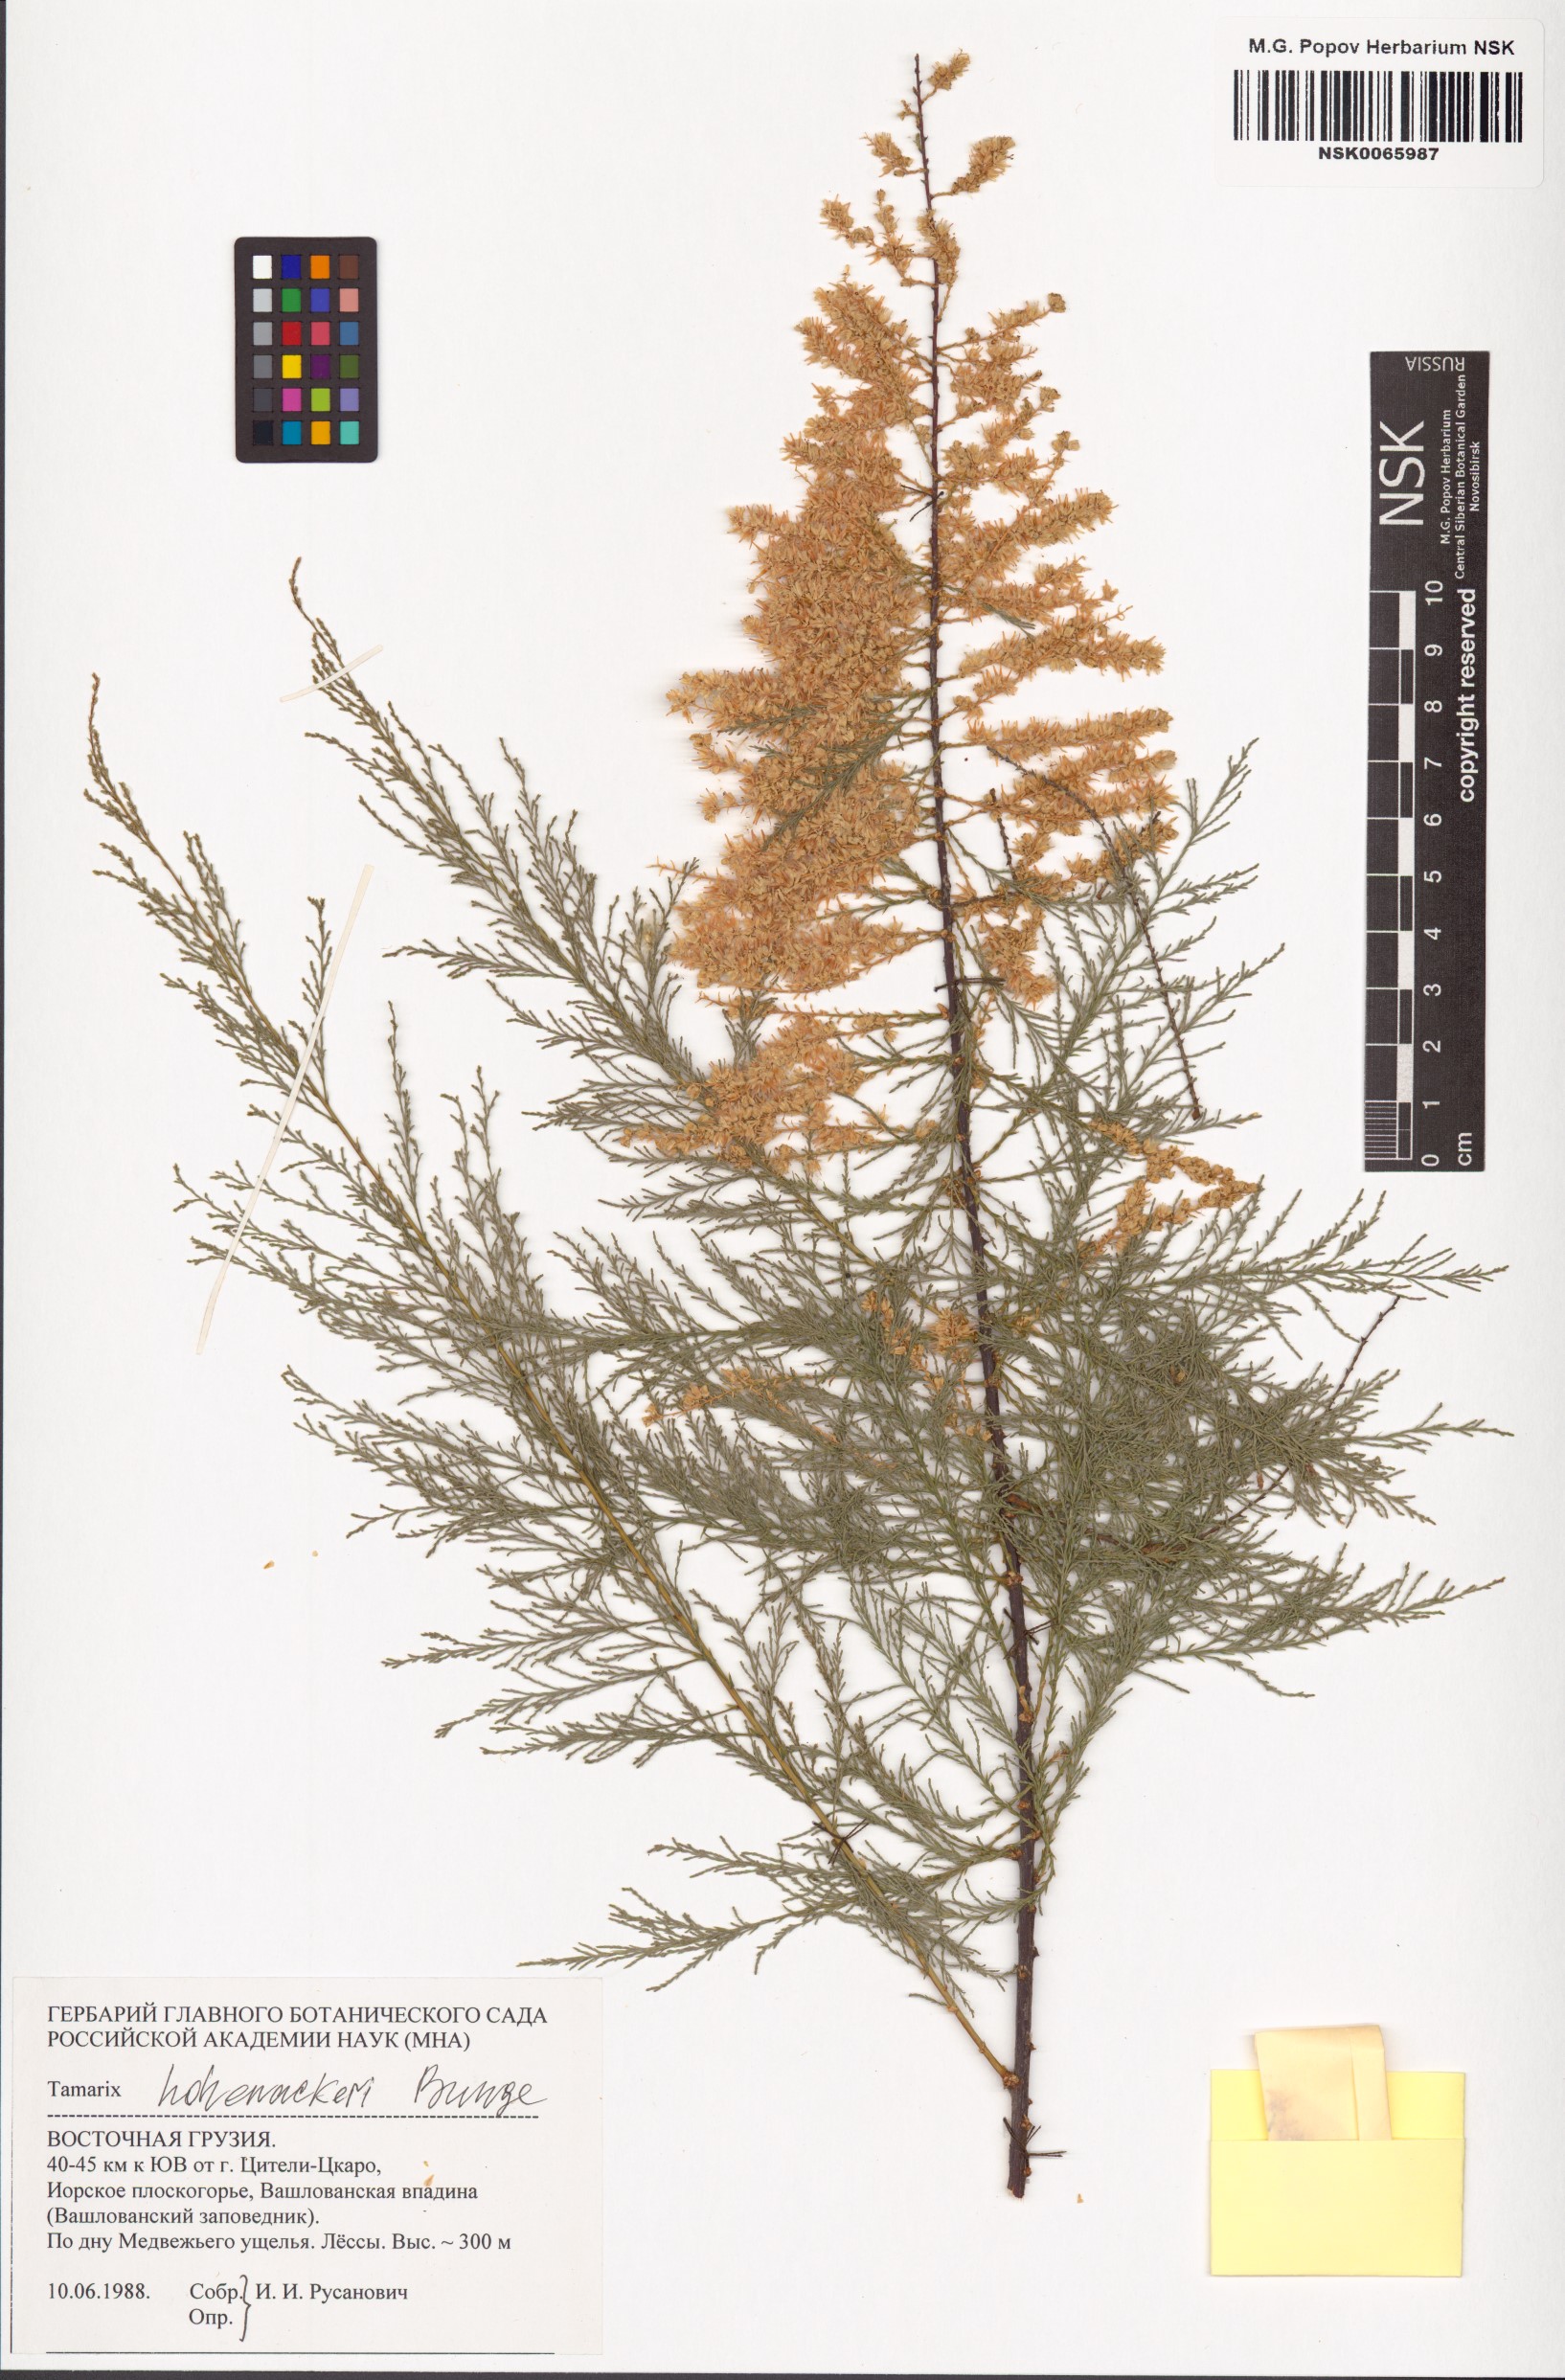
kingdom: Plantae
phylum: Tracheophyta
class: Magnoliopsida
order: Caryophyllales
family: Tamaricaceae
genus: Tamarix
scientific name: Tamarix hohenackeri
